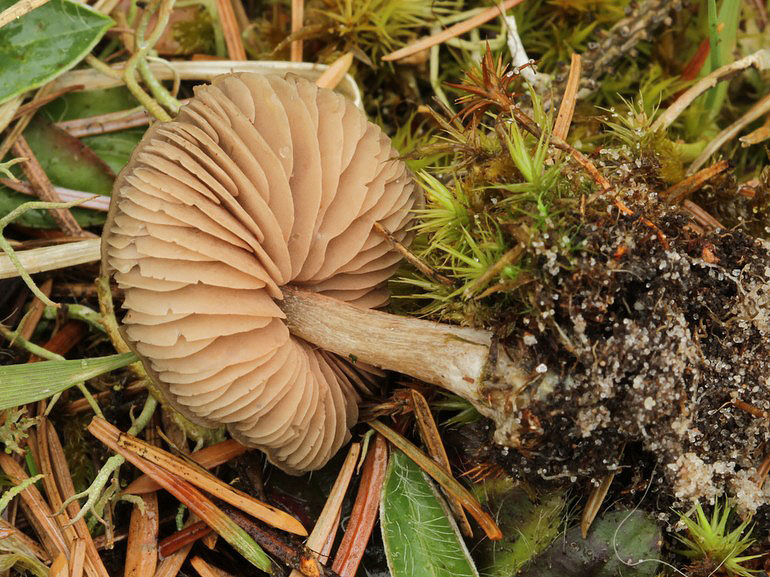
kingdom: Fungi
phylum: Basidiomycota
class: Agaricomycetes
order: Agaricales
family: Entolomataceae
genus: Entoloma
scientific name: Entoloma lucidum
